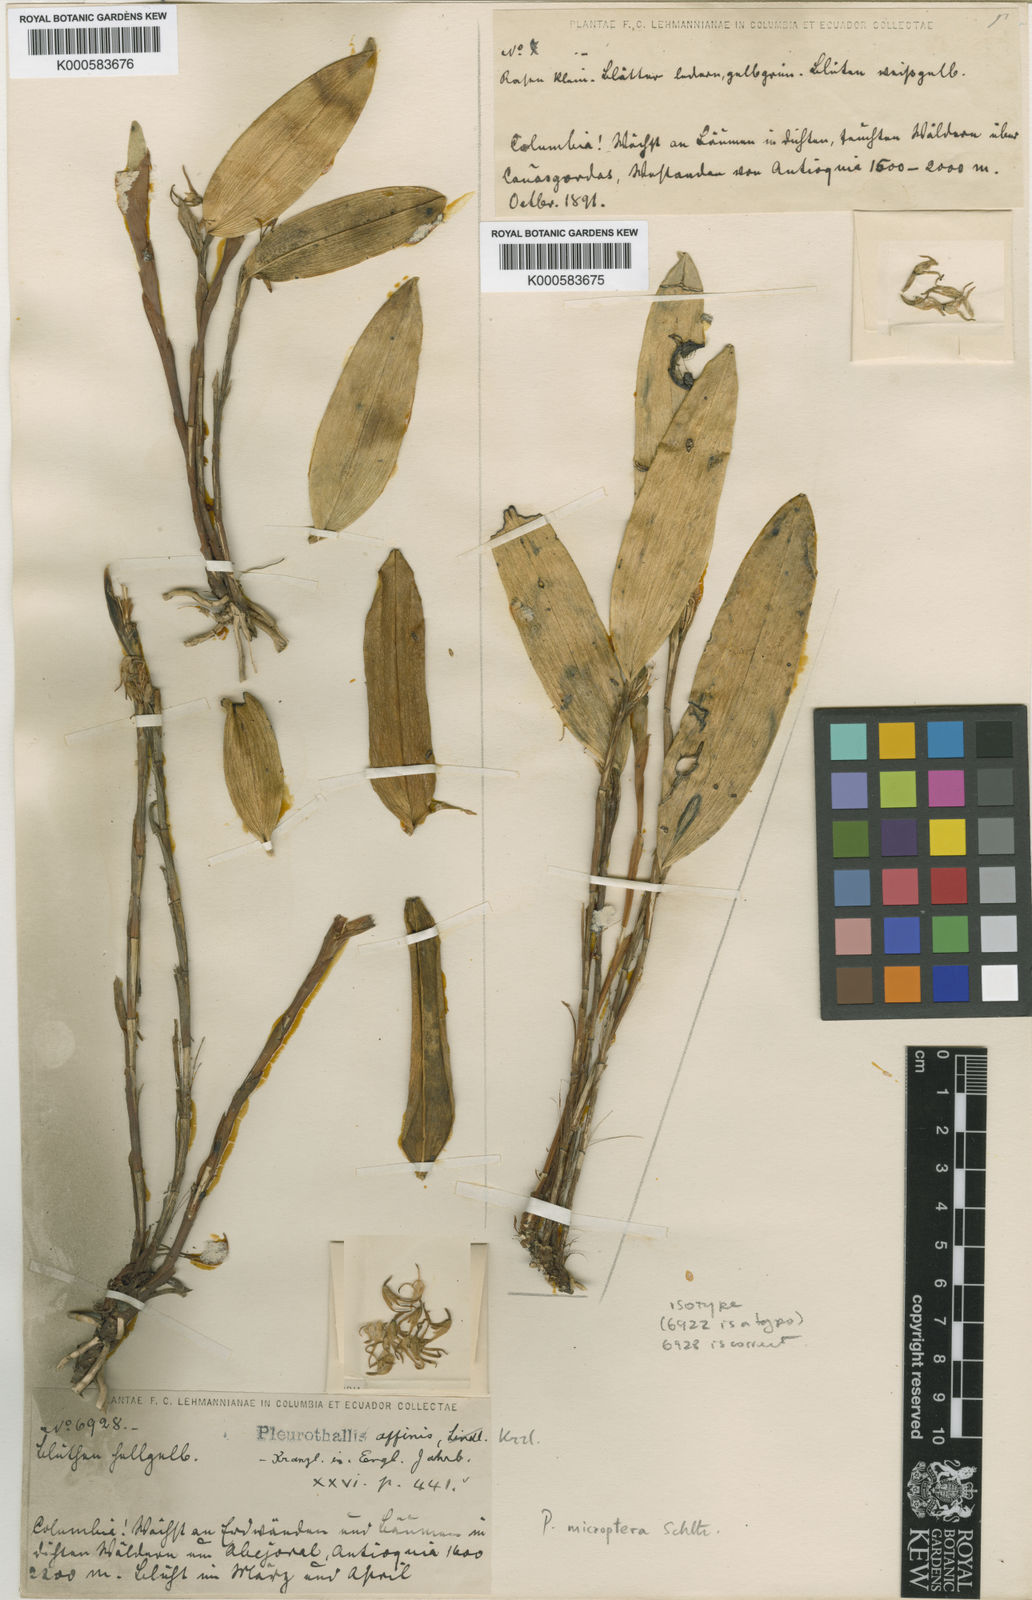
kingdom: Plantae
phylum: Tracheophyta
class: Liliopsida
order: Asparagales
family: Orchidaceae
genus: Pleurothallopsis
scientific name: Pleurothallopsis microptera
